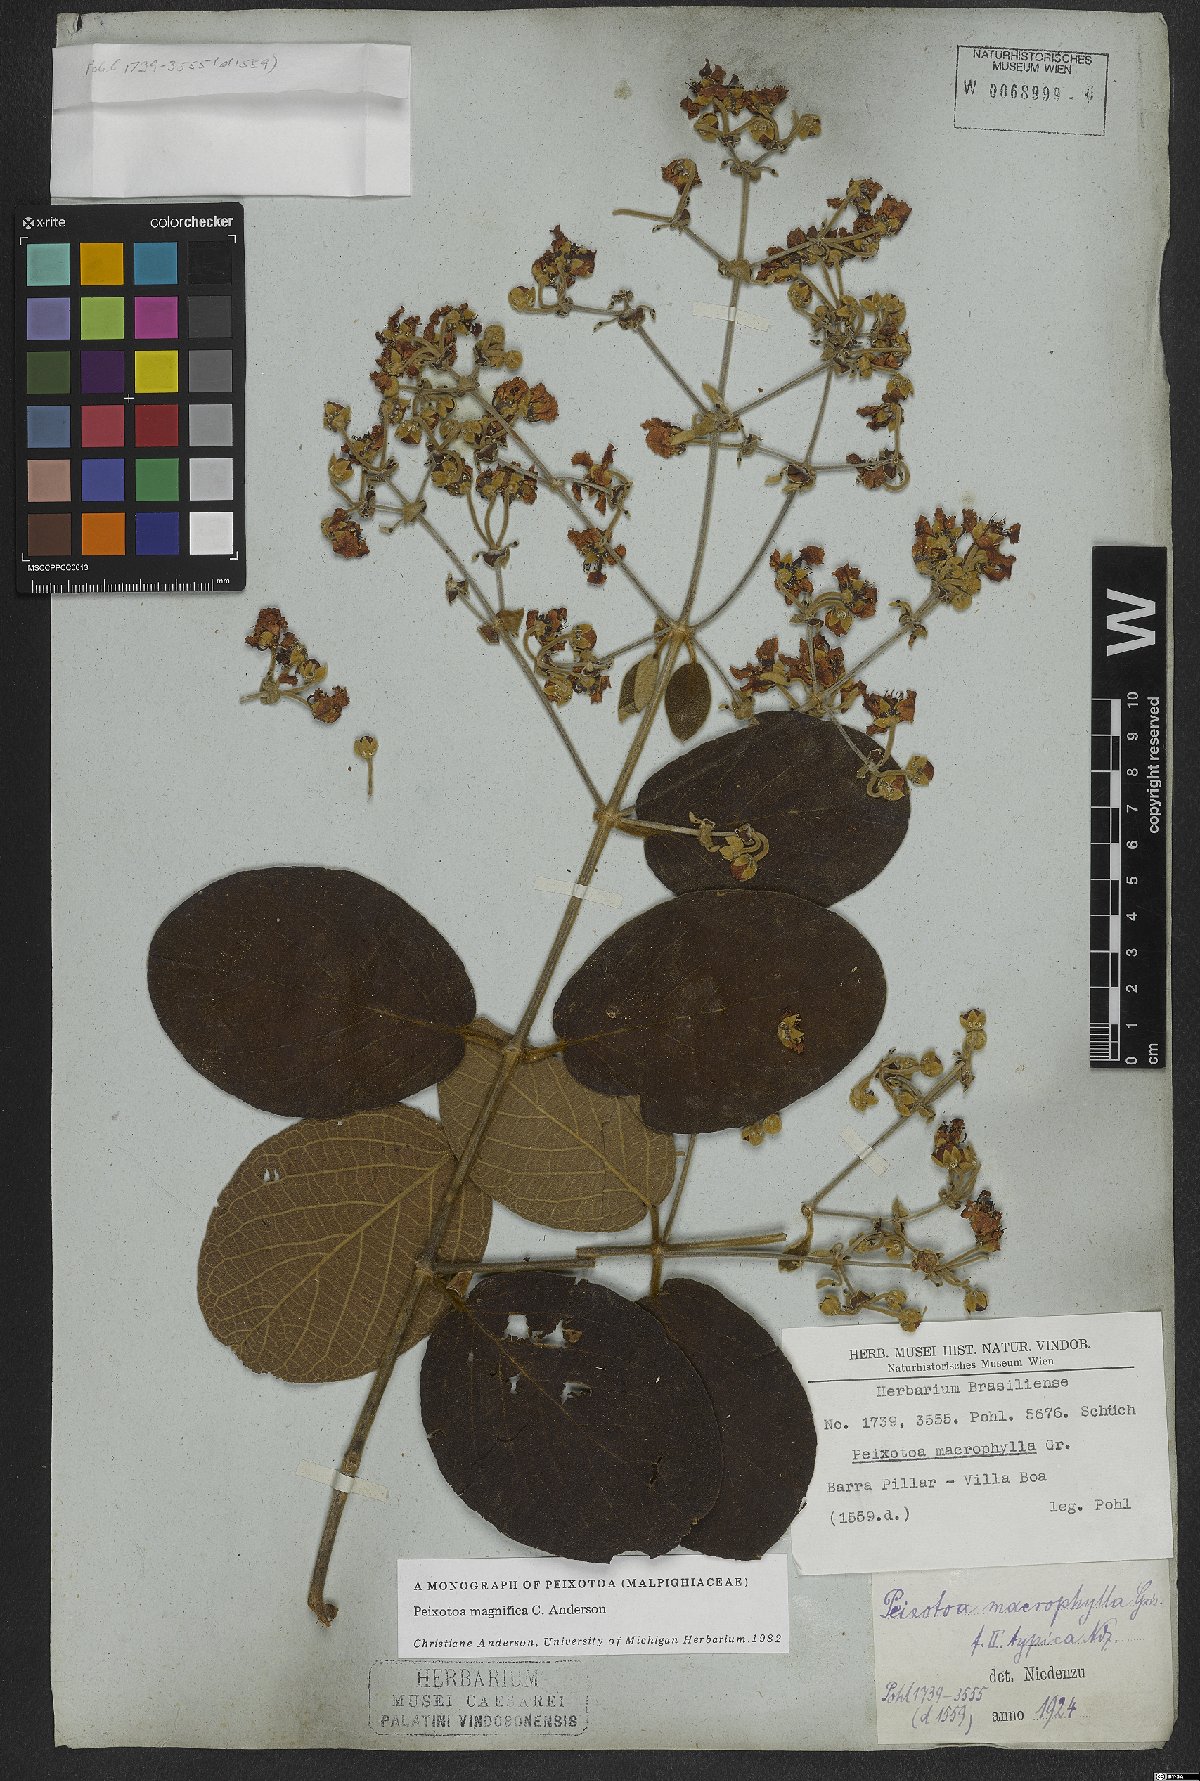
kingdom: Plantae
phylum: Tracheophyta
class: Magnoliopsida
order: Malpighiales
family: Malpighiaceae
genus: Peixotoa
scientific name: Peixotoa magnifica
